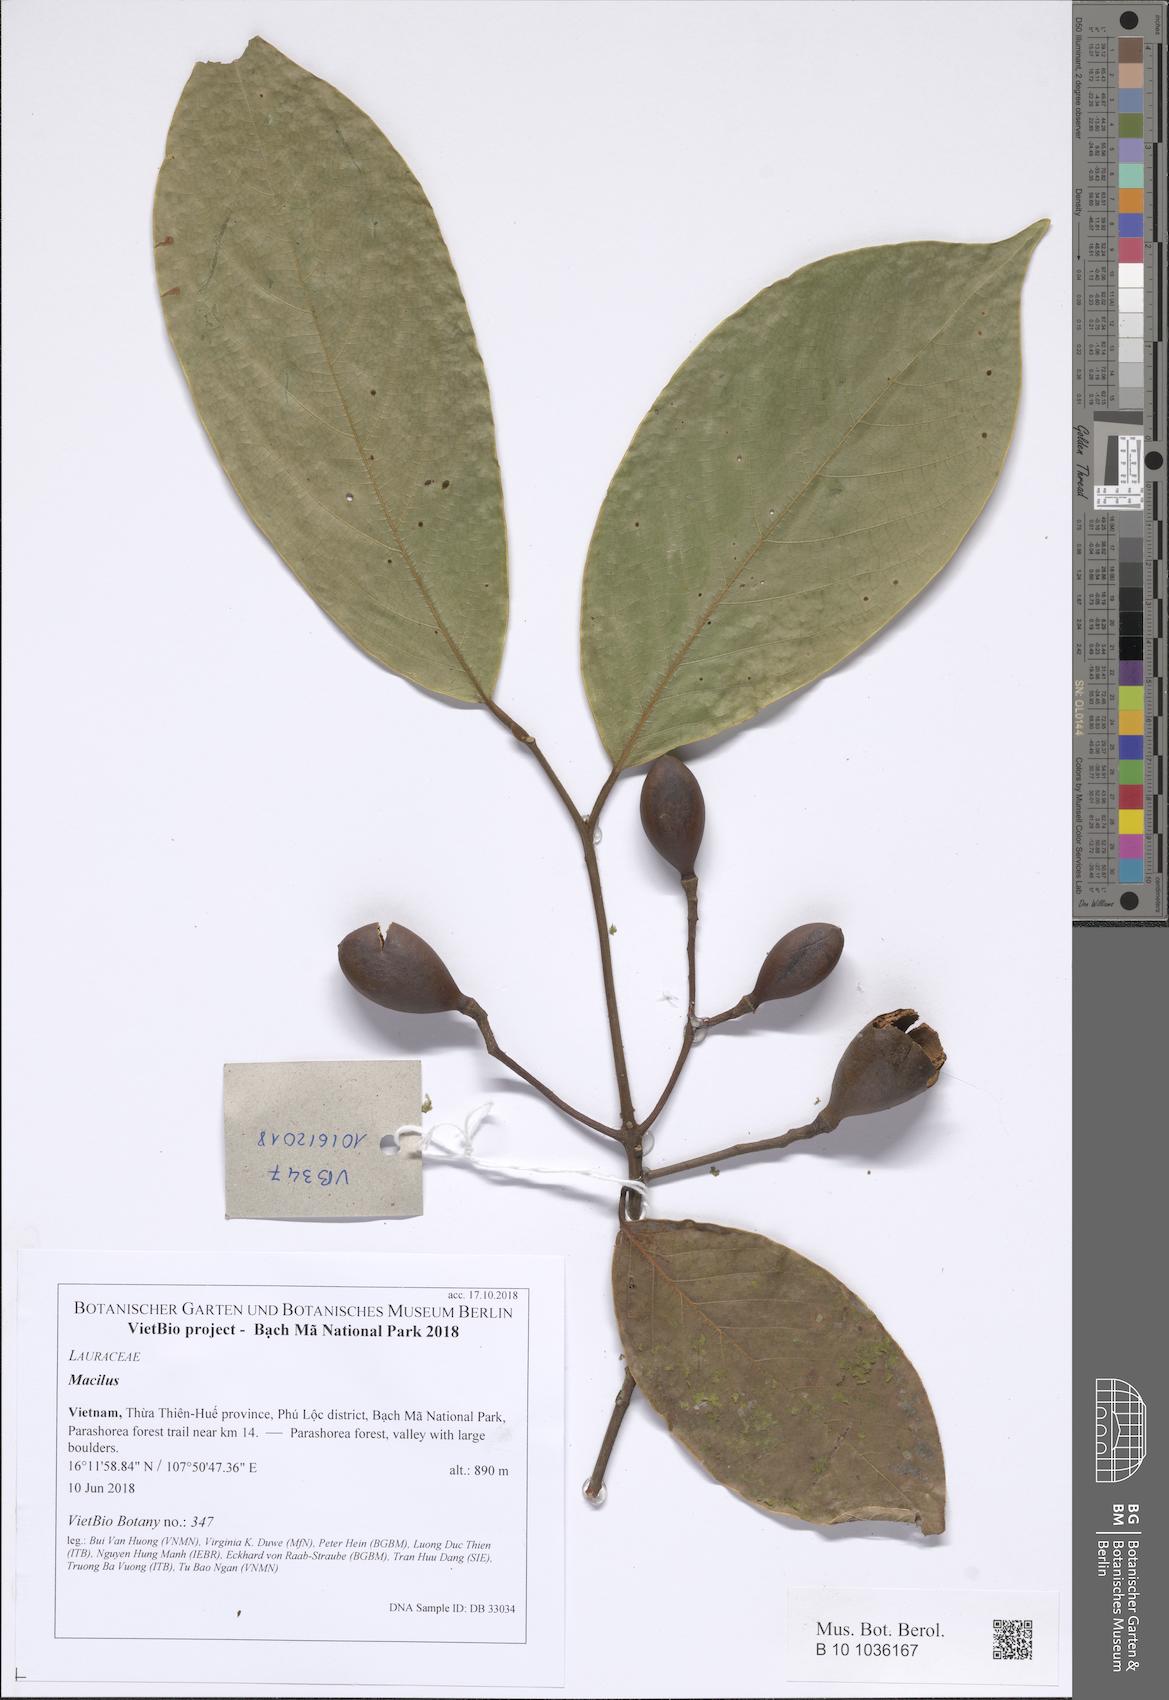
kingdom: Plantae
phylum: Tracheophyta
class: Magnoliopsida
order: Laurales
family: Lauraceae
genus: Machilus
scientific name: Machilus
